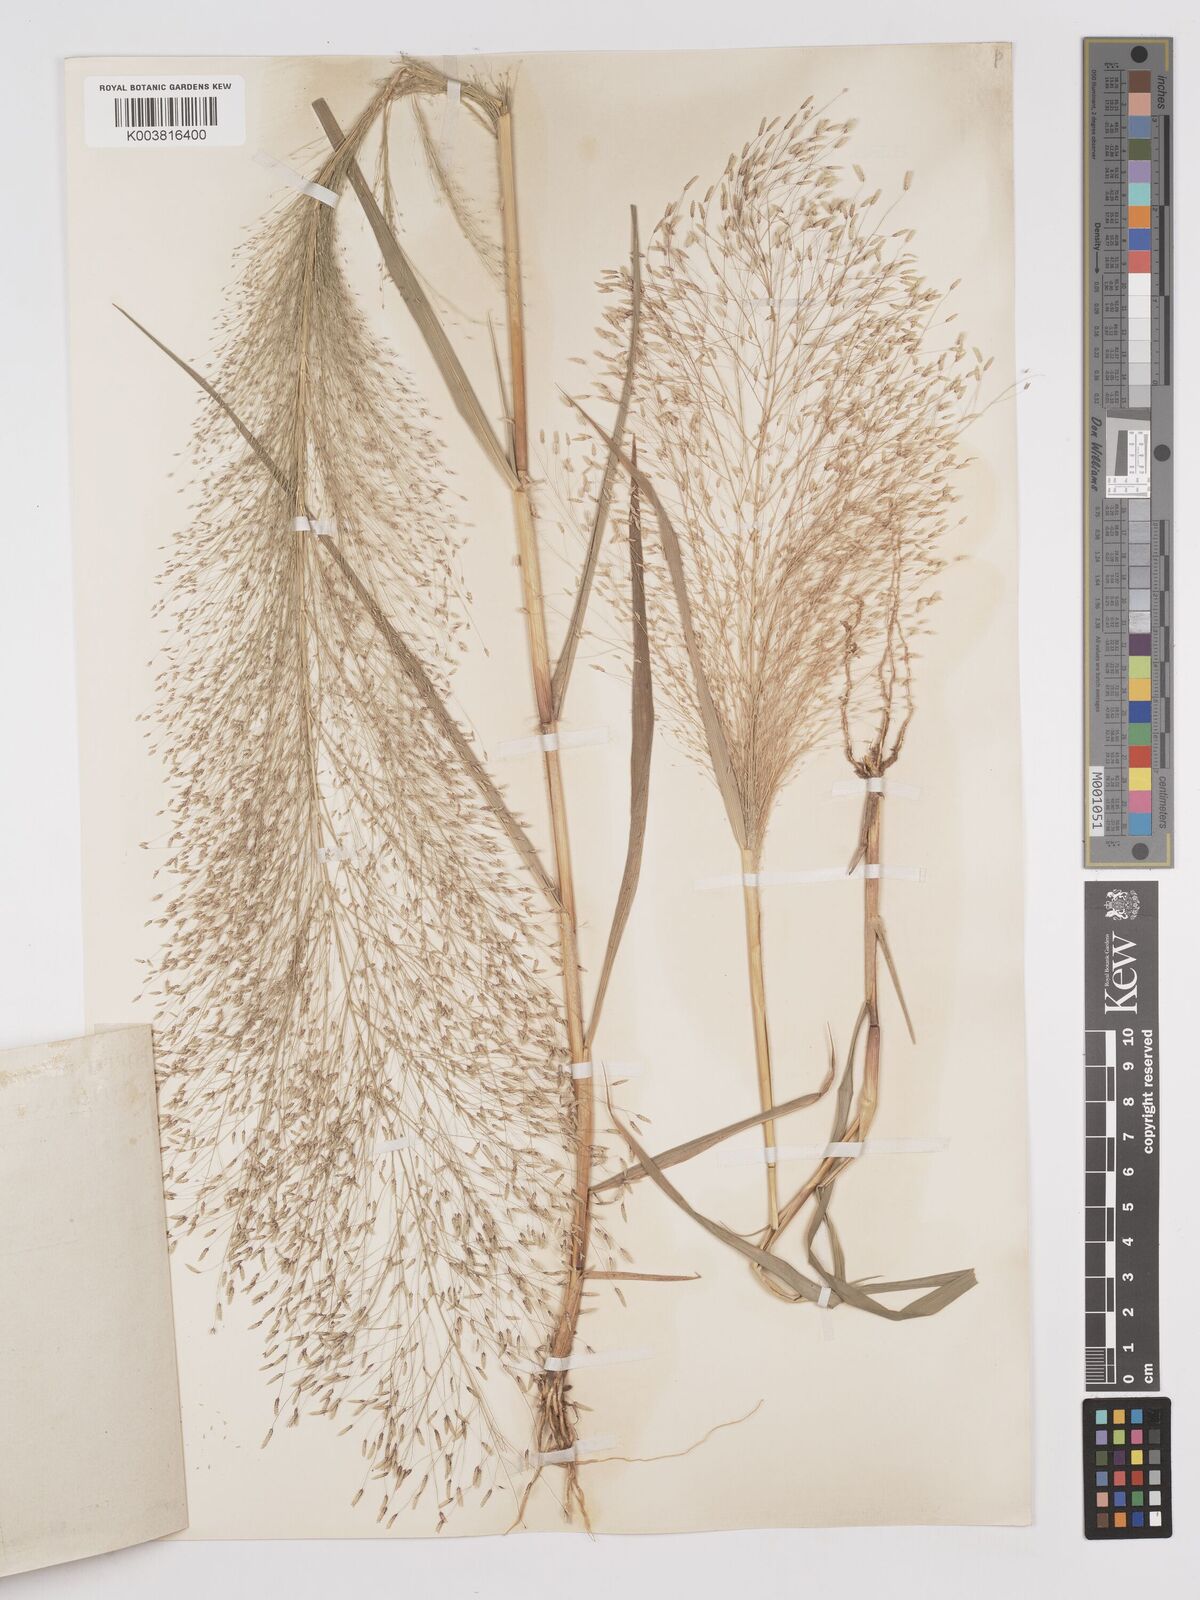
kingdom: Plantae
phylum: Tracheophyta
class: Liliopsida
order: Poales
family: Poaceae
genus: Eragrostis
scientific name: Eragrostis aspera
